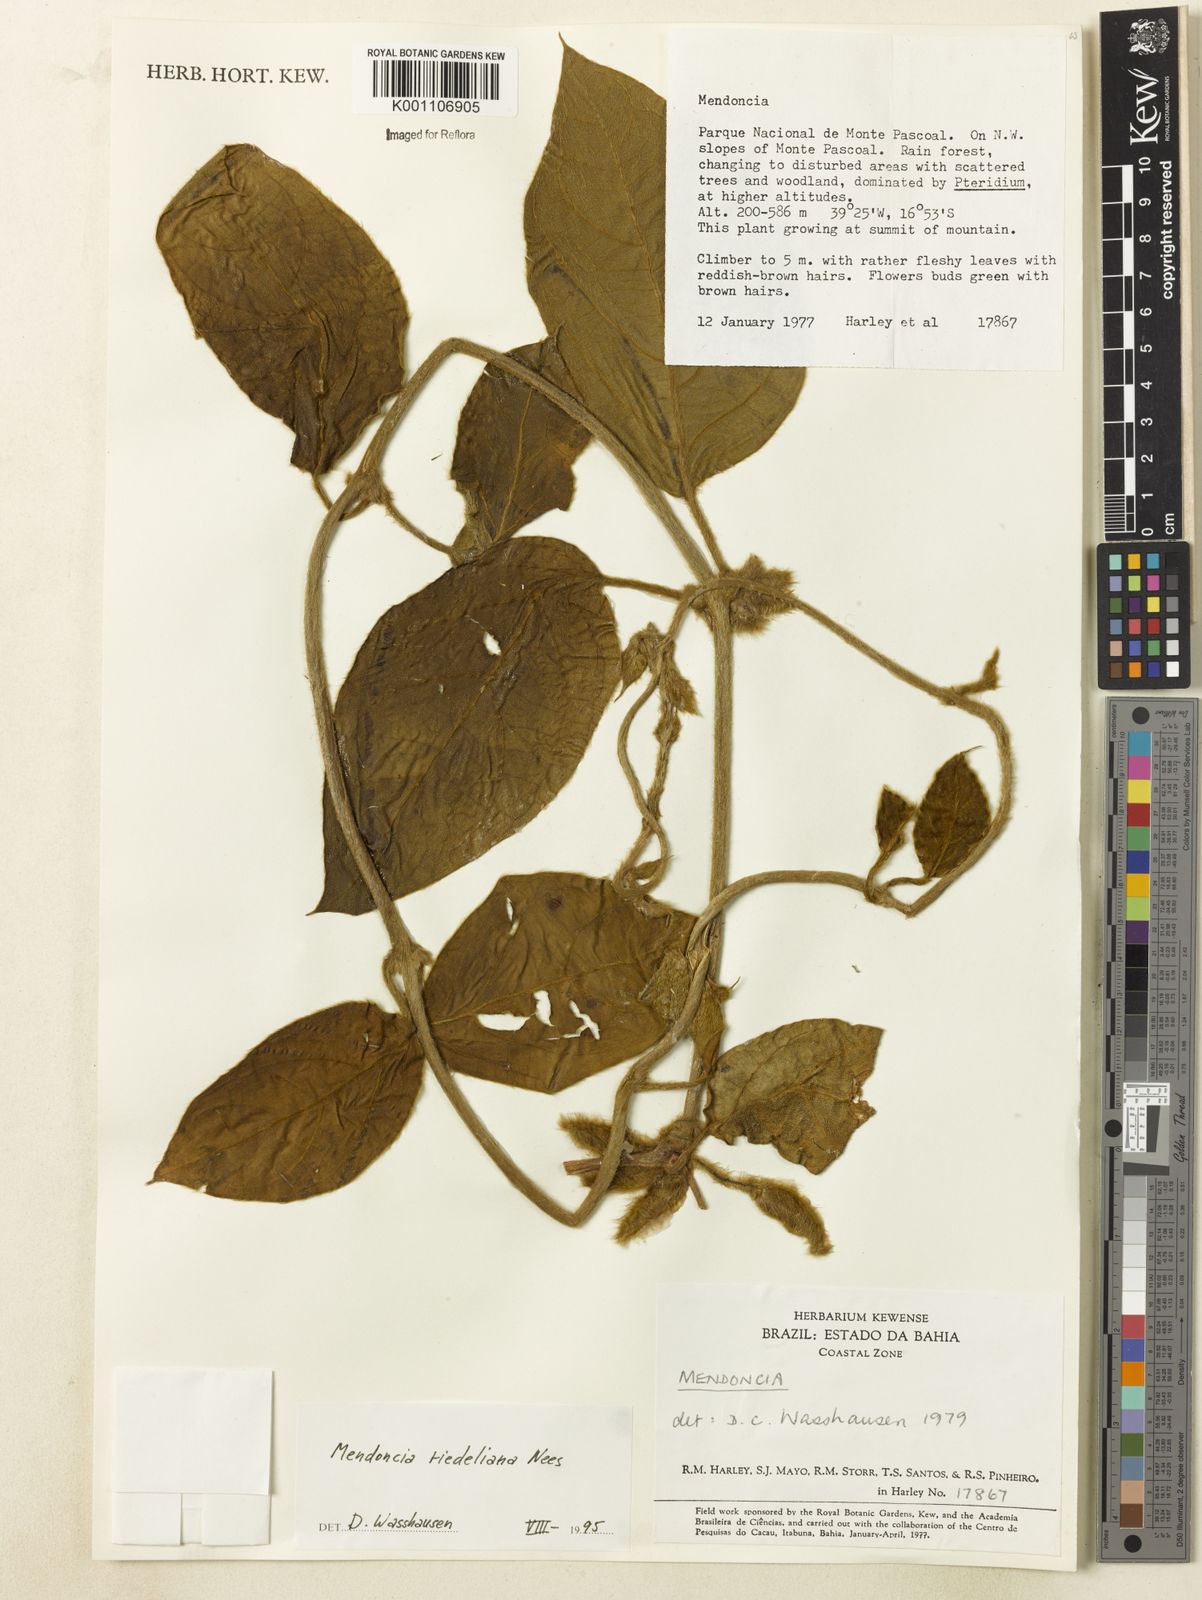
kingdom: Plantae
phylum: Tracheophyta
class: Magnoliopsida
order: Lamiales
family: Acanthaceae
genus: Mendoncia
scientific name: Mendoncia
